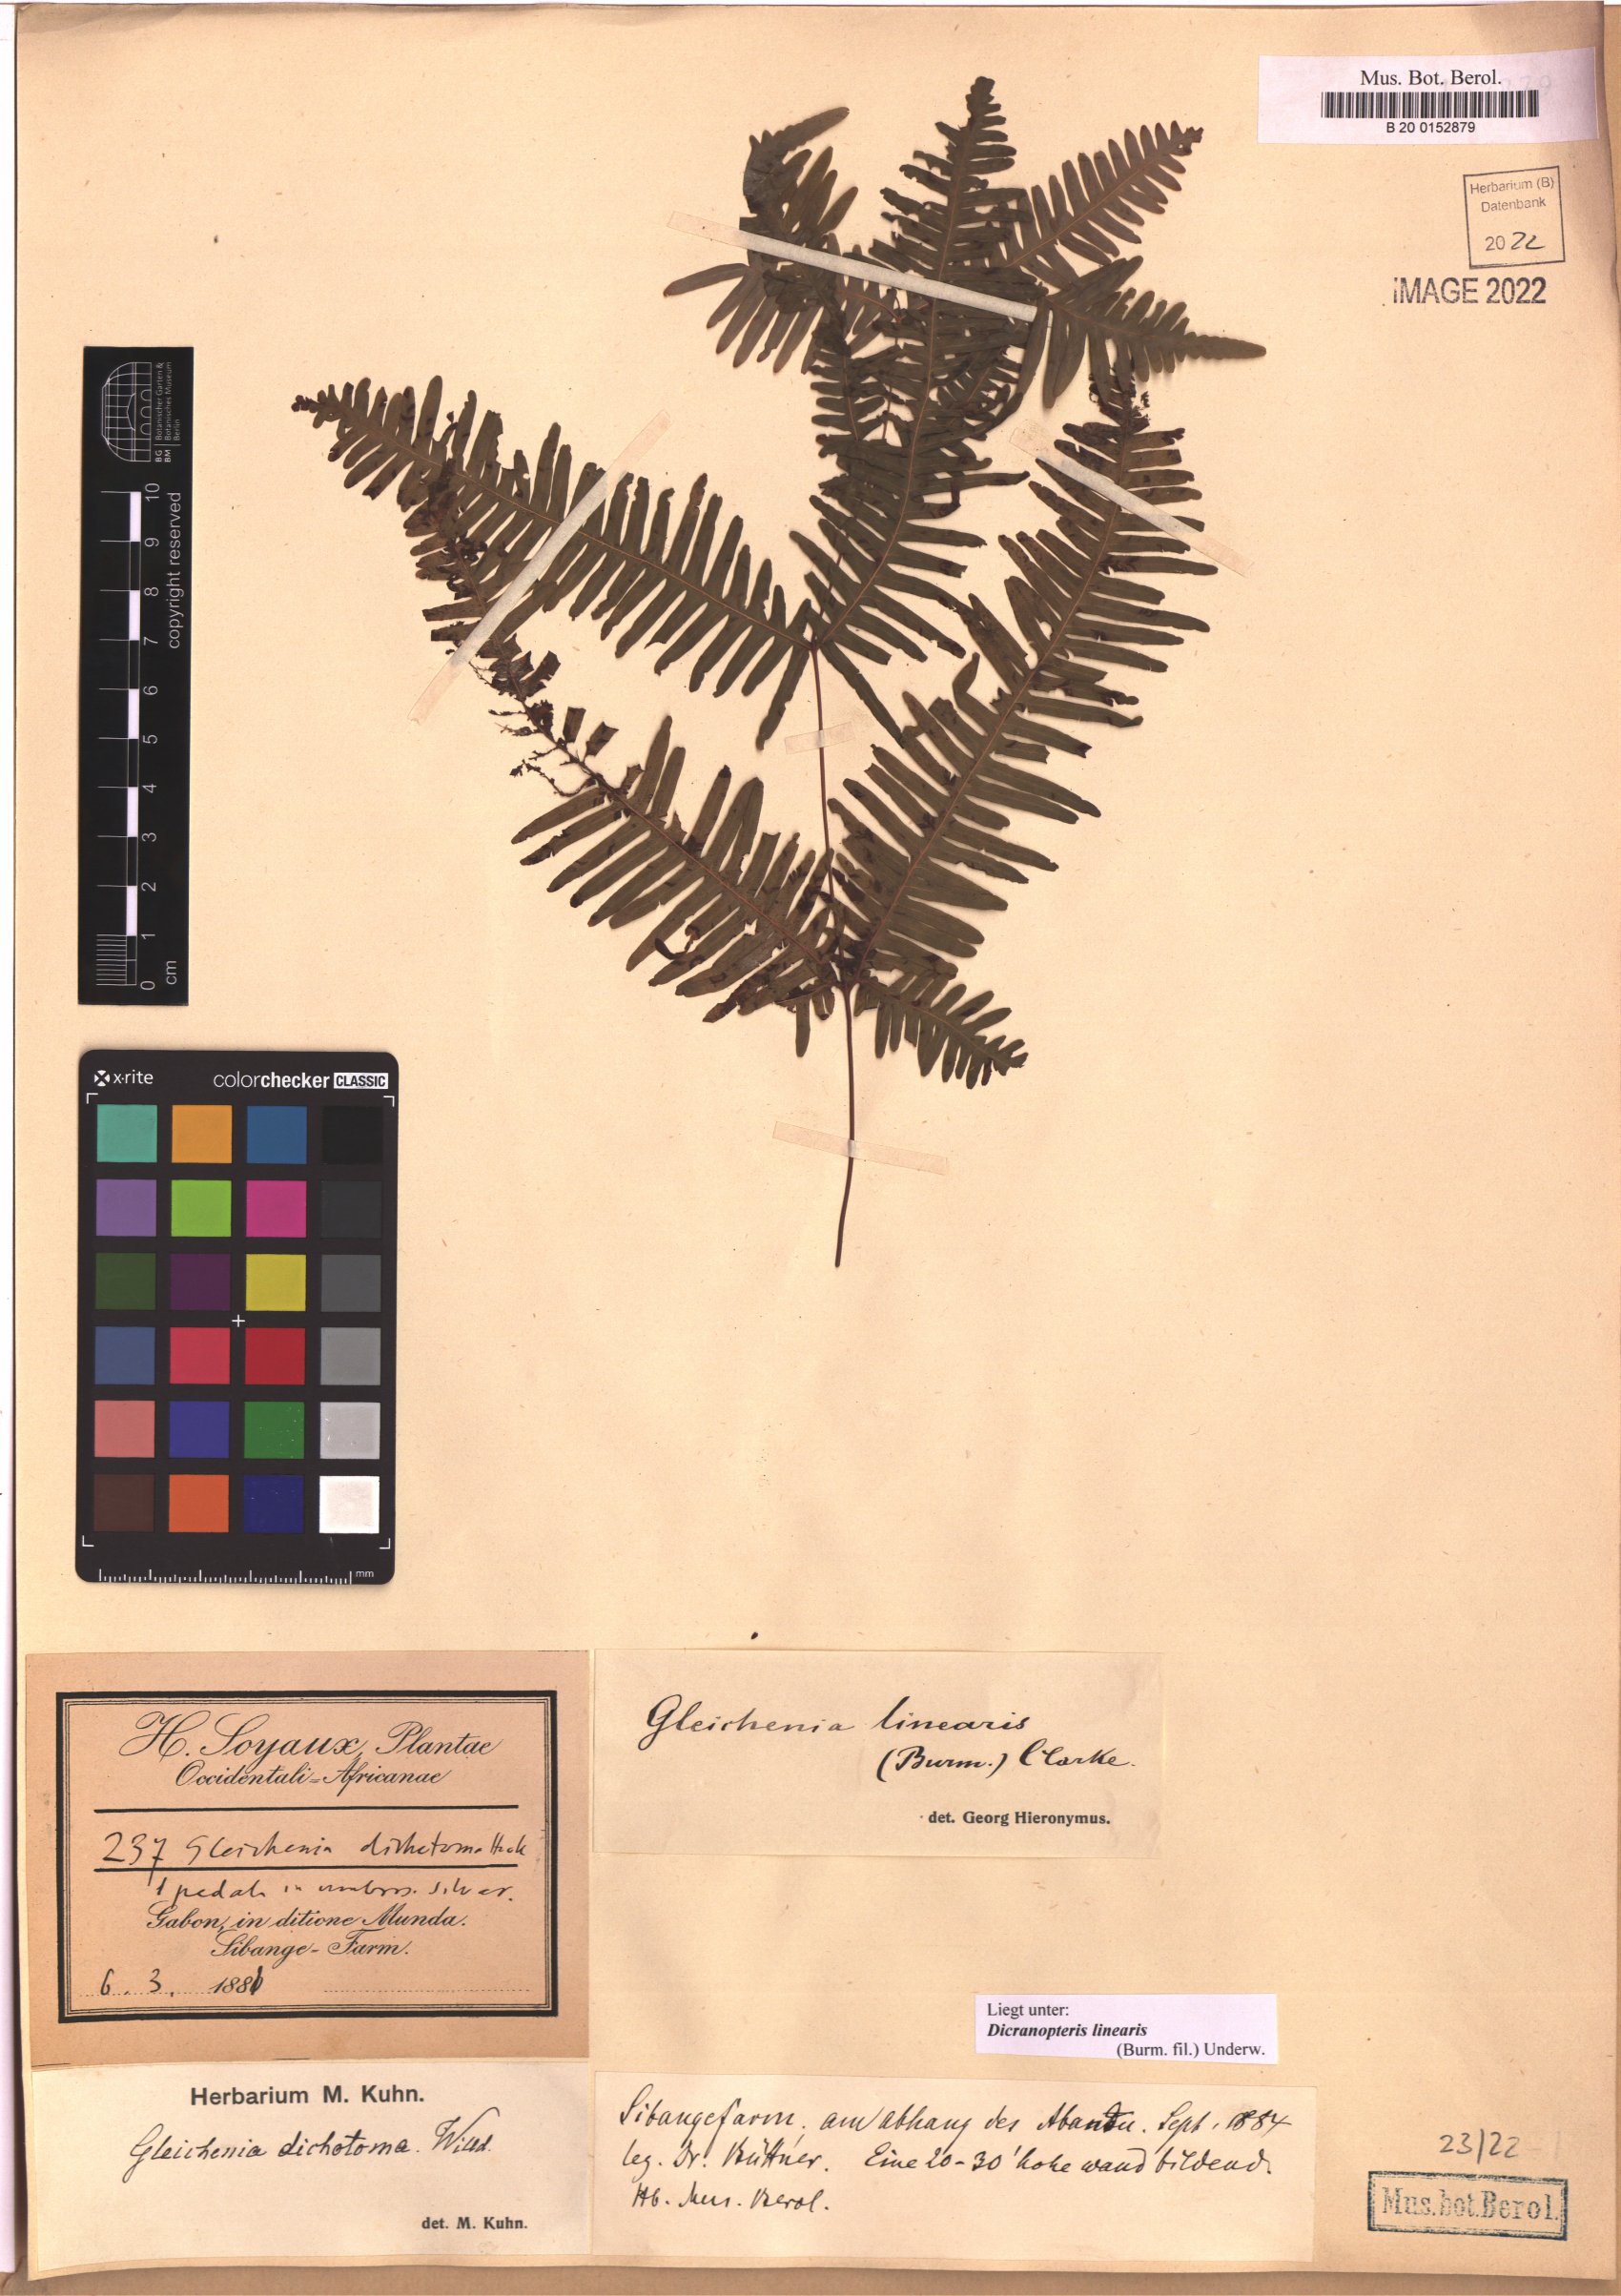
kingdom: Plantae
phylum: Tracheophyta
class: Polypodiopsida
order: Gleicheniales
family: Gleicheniaceae
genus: Dicranopteris
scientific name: Dicranopteris linearis
